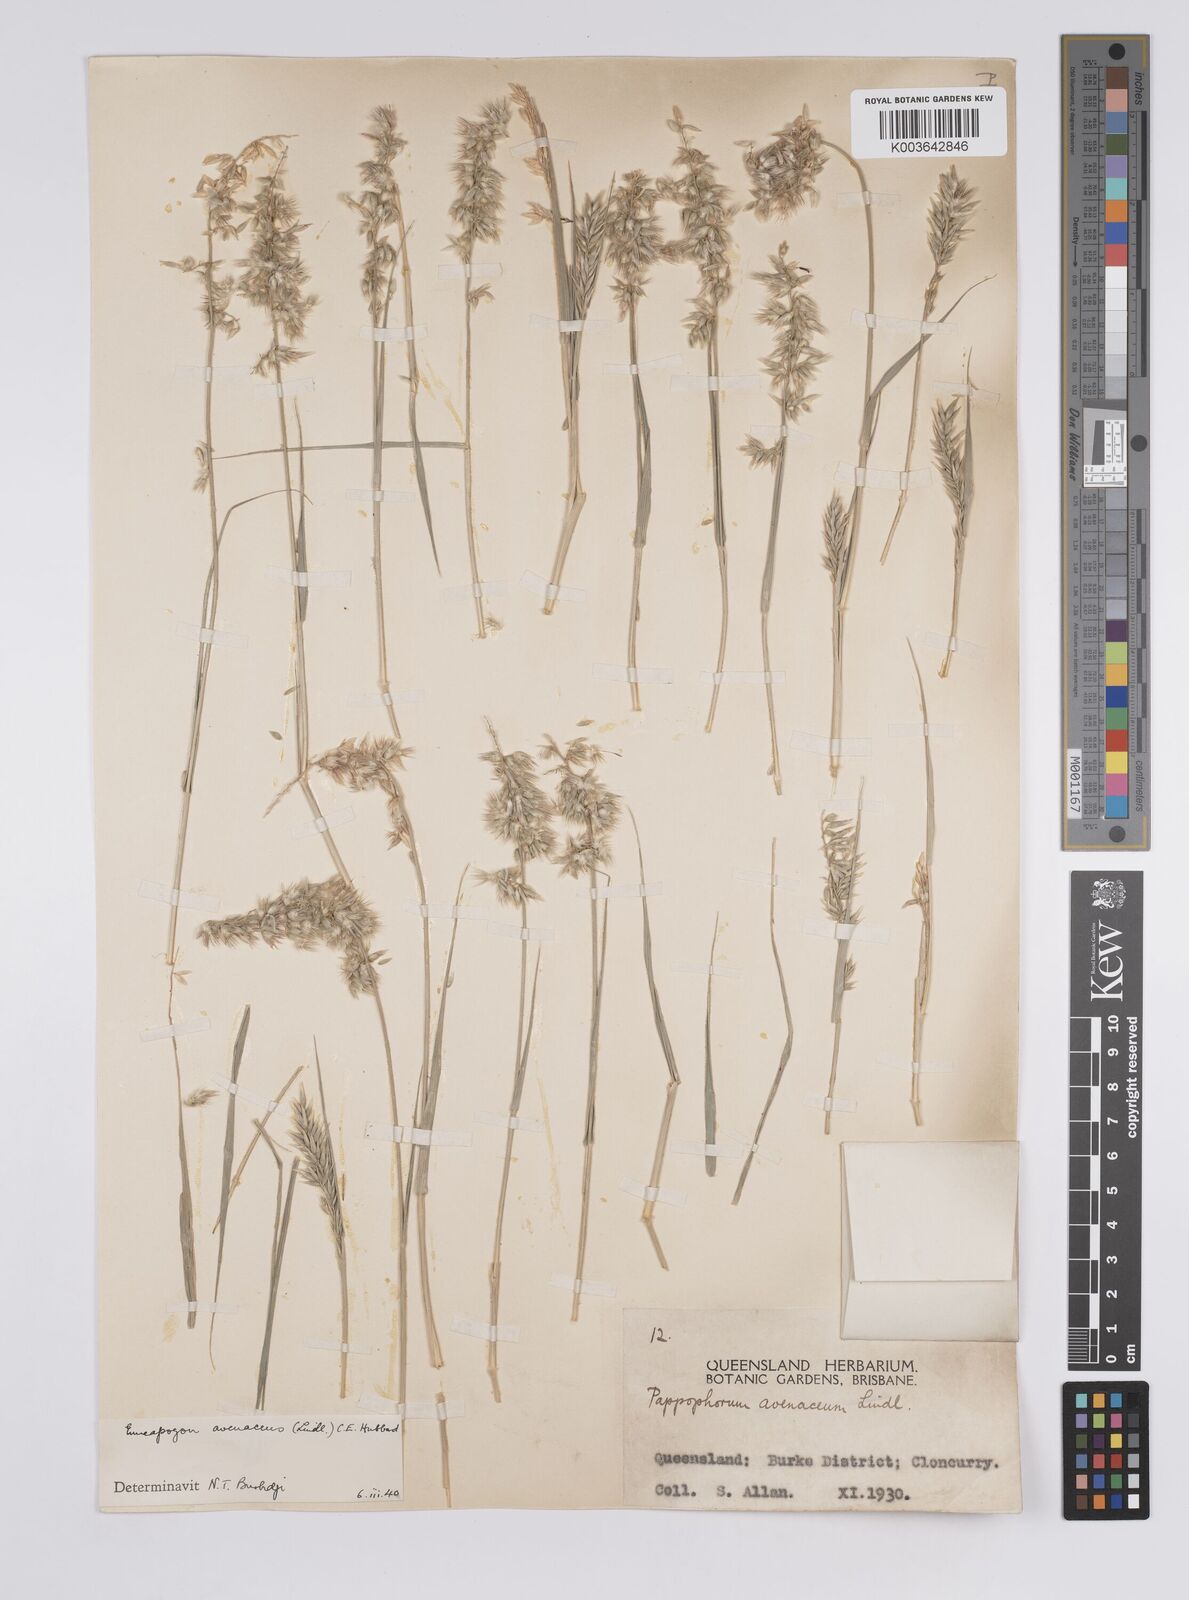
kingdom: Plantae
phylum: Tracheophyta
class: Liliopsida
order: Poales
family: Poaceae
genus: Enneapogon
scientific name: Enneapogon avenaceus
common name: Hairy oat grass
